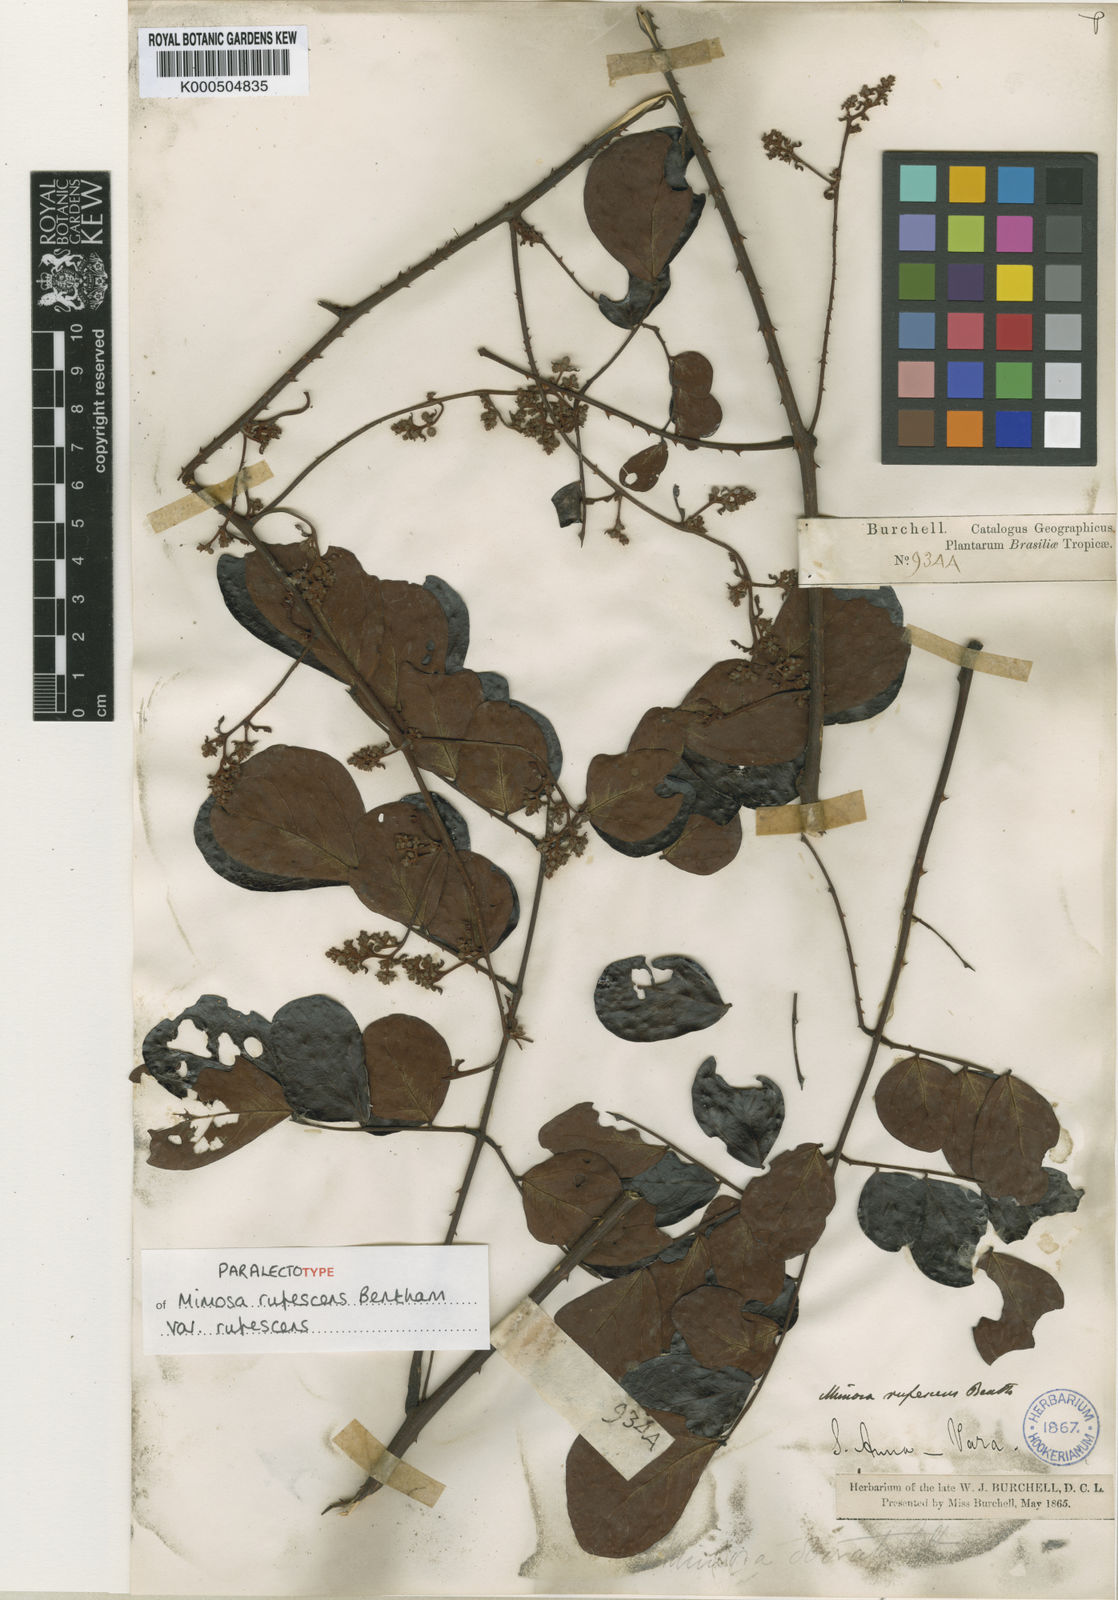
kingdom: Plantae
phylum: Tracheophyta
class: Magnoliopsida
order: Fabales
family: Fabaceae
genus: Mimosa
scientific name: Mimosa rufescens
